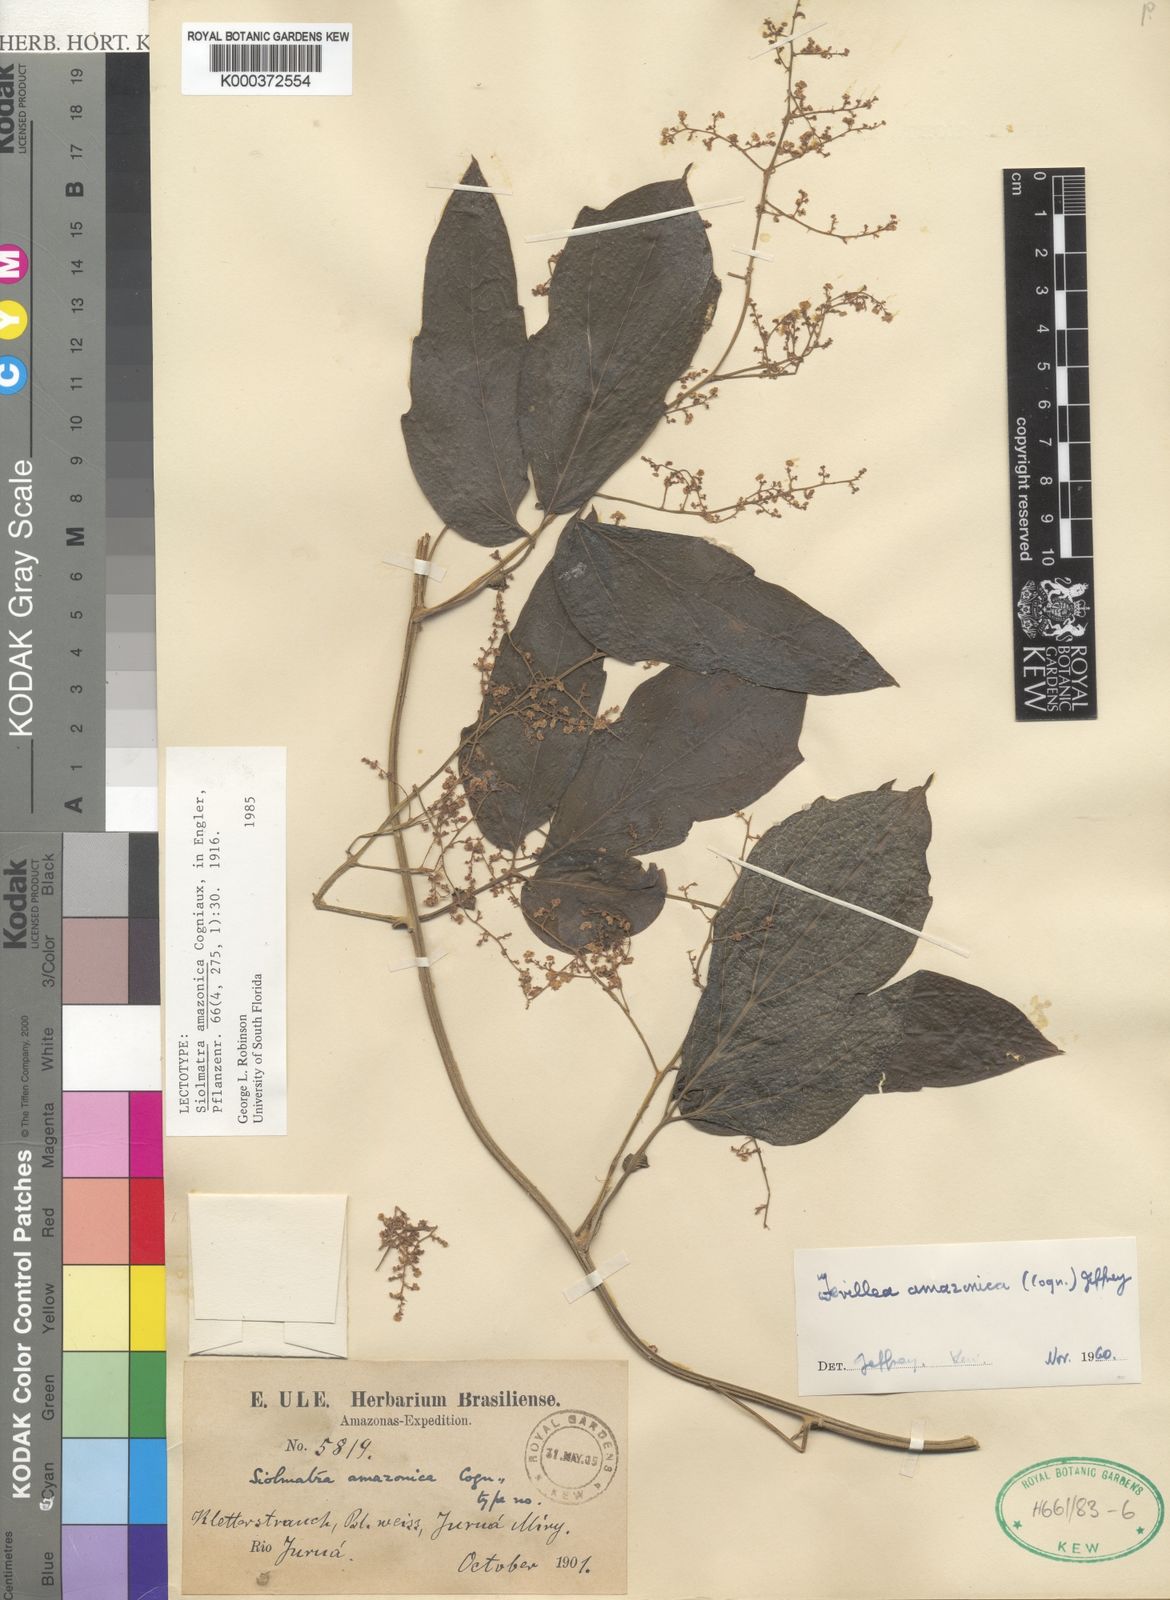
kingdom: Plantae
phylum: Tracheophyta
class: Magnoliopsida
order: Cucurbitales
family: Cucurbitaceae
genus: Fevillea
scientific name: Fevillea pedatifolia
